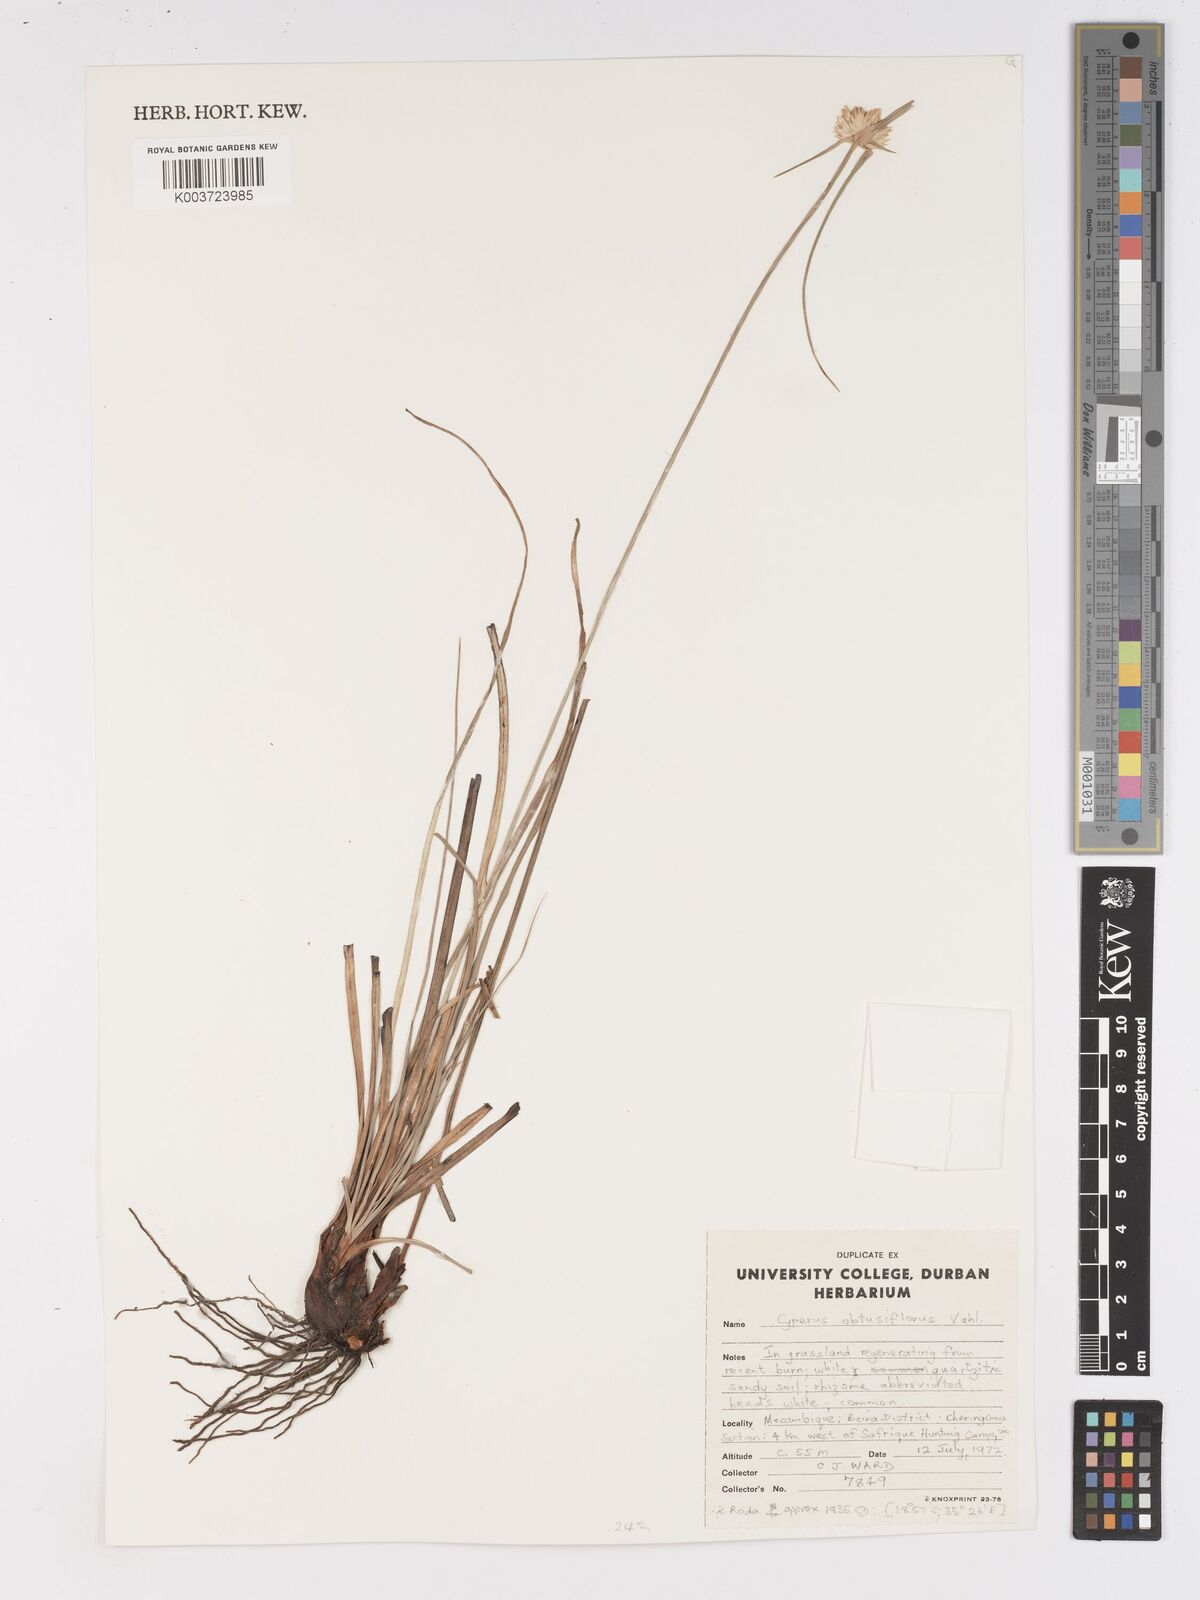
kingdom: Plantae
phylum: Tracheophyta
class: Liliopsida
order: Poales
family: Cyperaceae
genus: Cyperus
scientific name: Cyperus niveus
